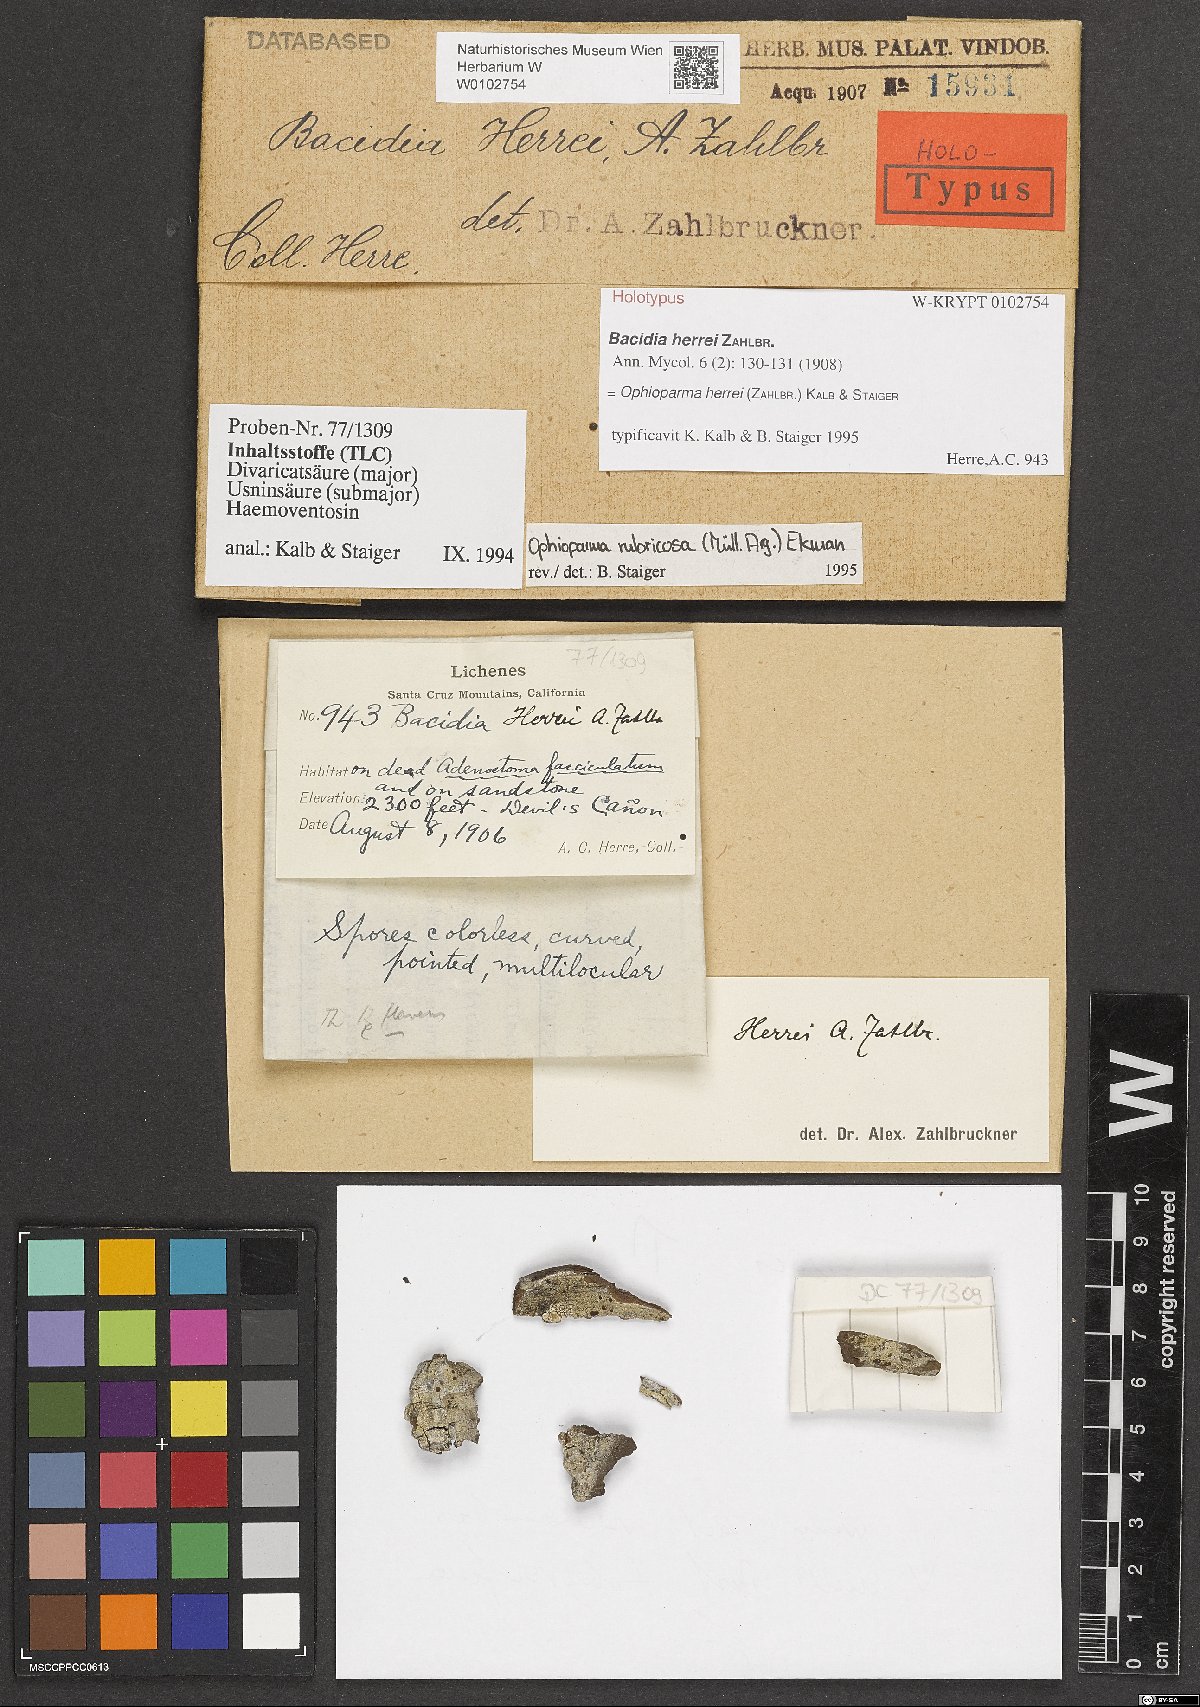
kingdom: Fungi
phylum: Ascomycota
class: Lecanoromycetes
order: Lecanorales
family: Ramalinaceae
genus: Bacidia
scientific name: Bacidia herrei
